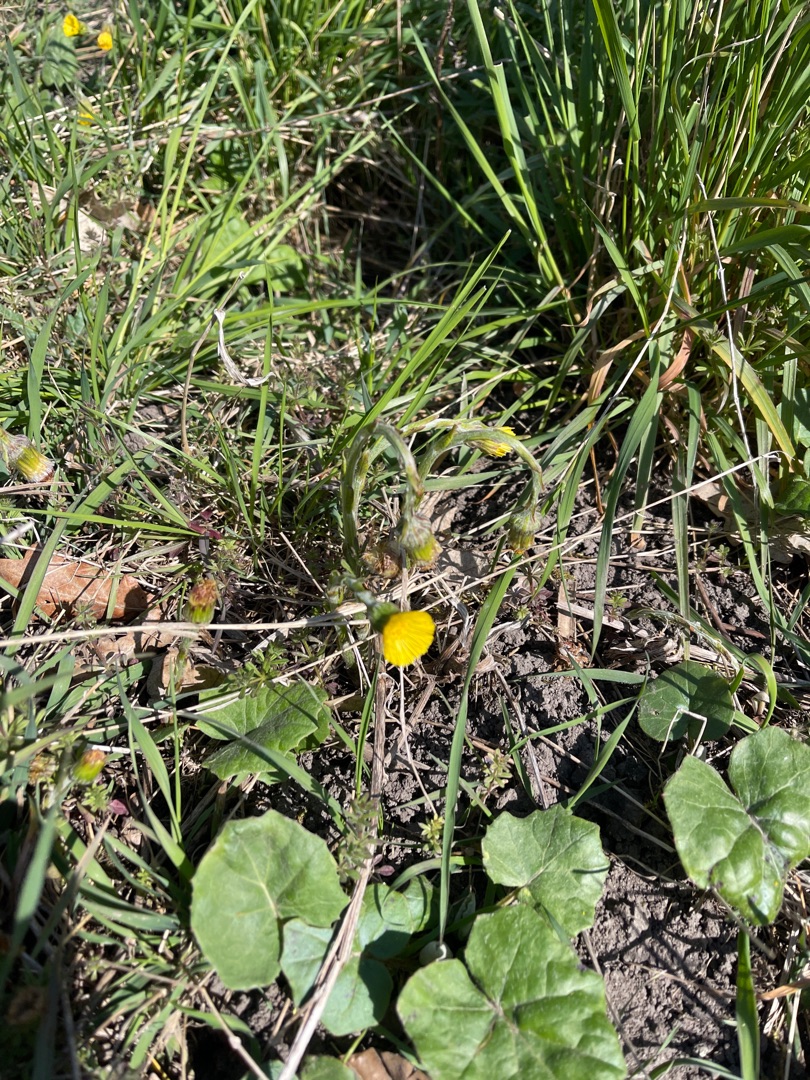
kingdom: Plantae
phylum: Tracheophyta
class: Magnoliopsida
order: Asterales
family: Asteraceae
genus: Tussilago
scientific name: Tussilago farfara
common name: Følfod
